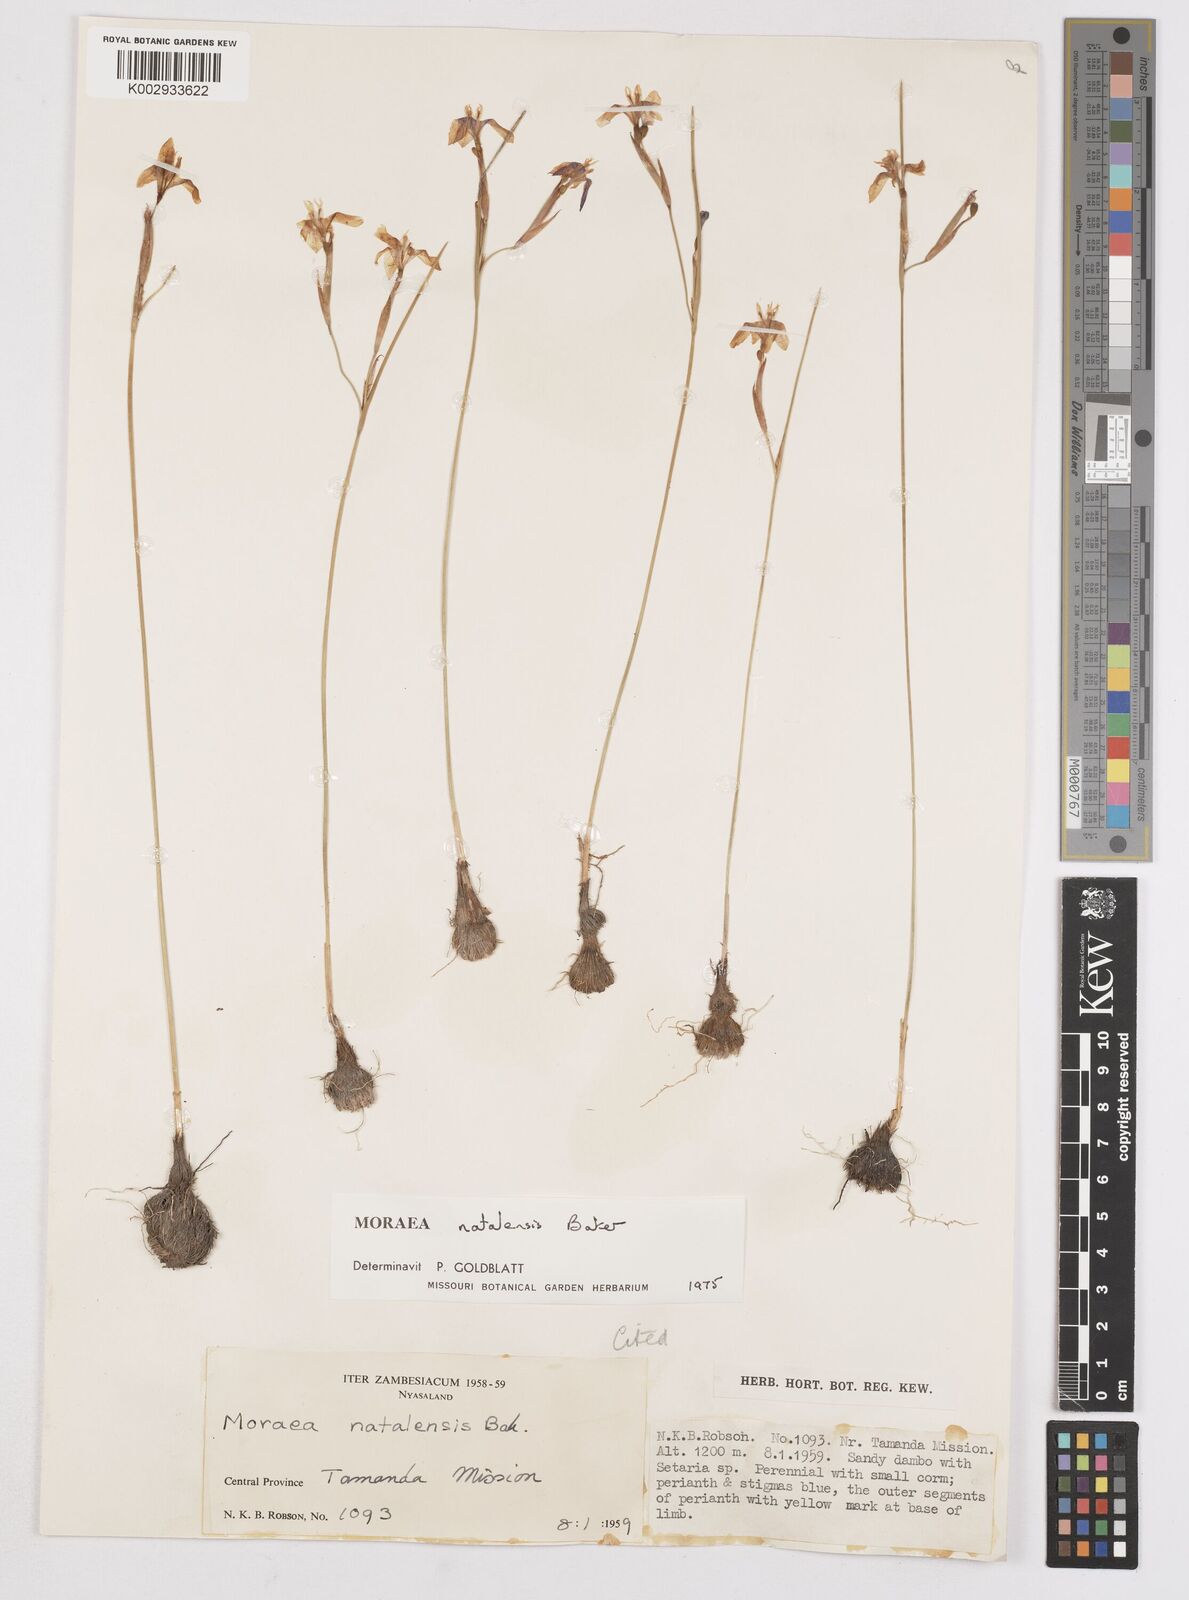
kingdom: Plantae
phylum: Tracheophyta
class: Liliopsida
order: Asparagales
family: Iridaceae
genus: Moraea
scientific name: Moraea natalensis
